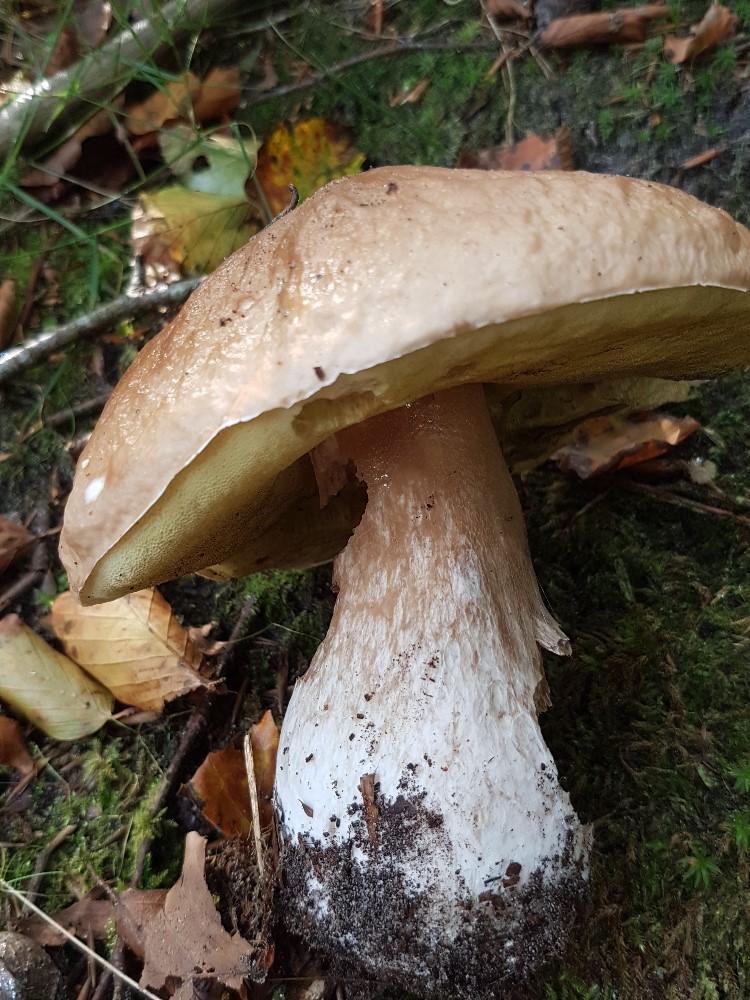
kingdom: Fungi
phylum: Basidiomycota
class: Agaricomycetes
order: Boletales
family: Boletaceae
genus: Boletus
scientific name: Boletus edulis
